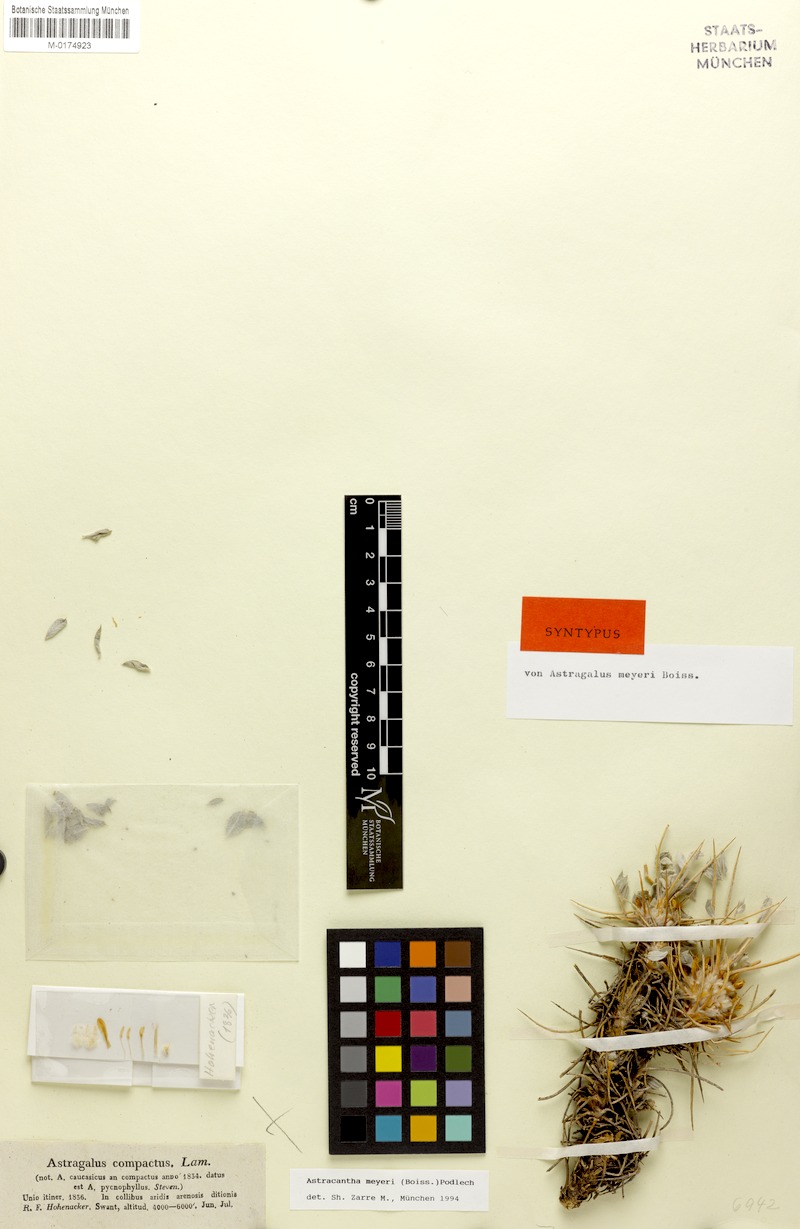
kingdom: Plantae
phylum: Tracheophyta
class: Magnoliopsida
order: Fabales
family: Fabaceae
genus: Astragalus
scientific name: Astragalus meyeri
